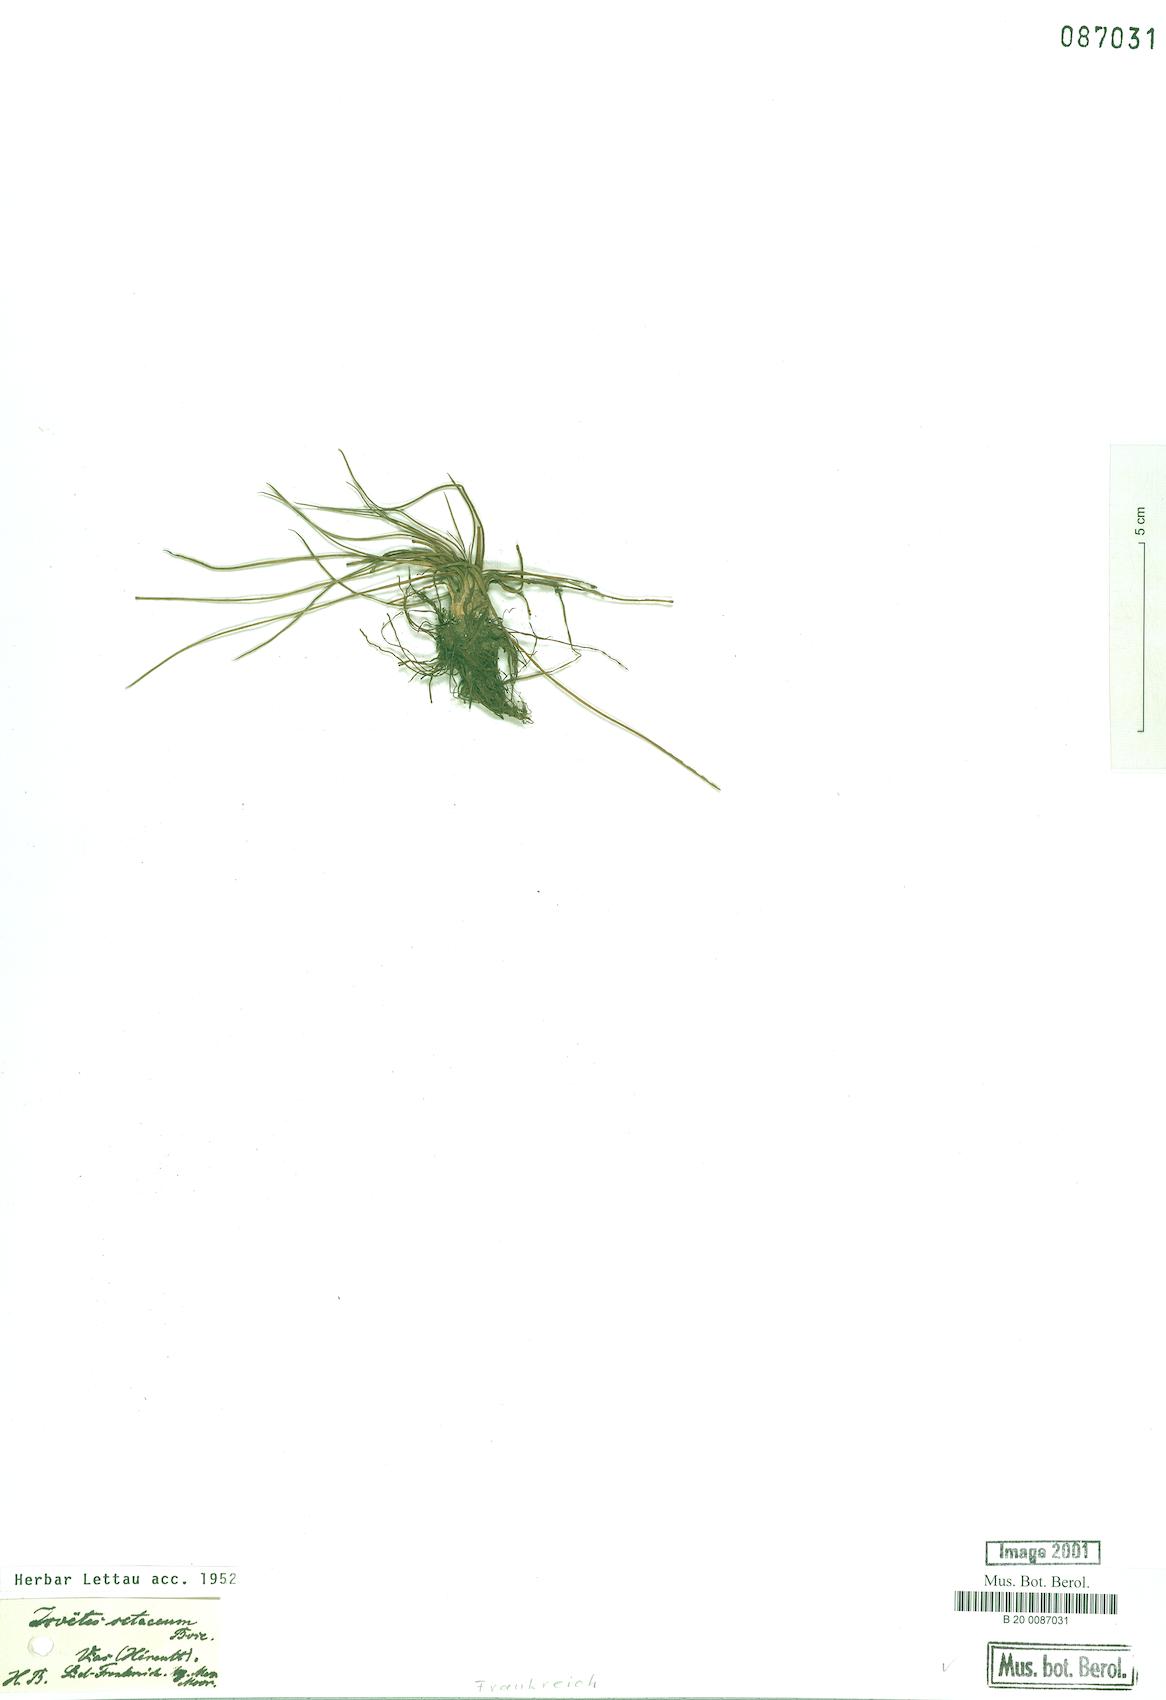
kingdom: Plantae
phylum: Tracheophyta
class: Lycopodiopsida
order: Isoetales
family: Isoetaceae
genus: Isoetes
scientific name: Isoetes lacustris
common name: Common quillwort
